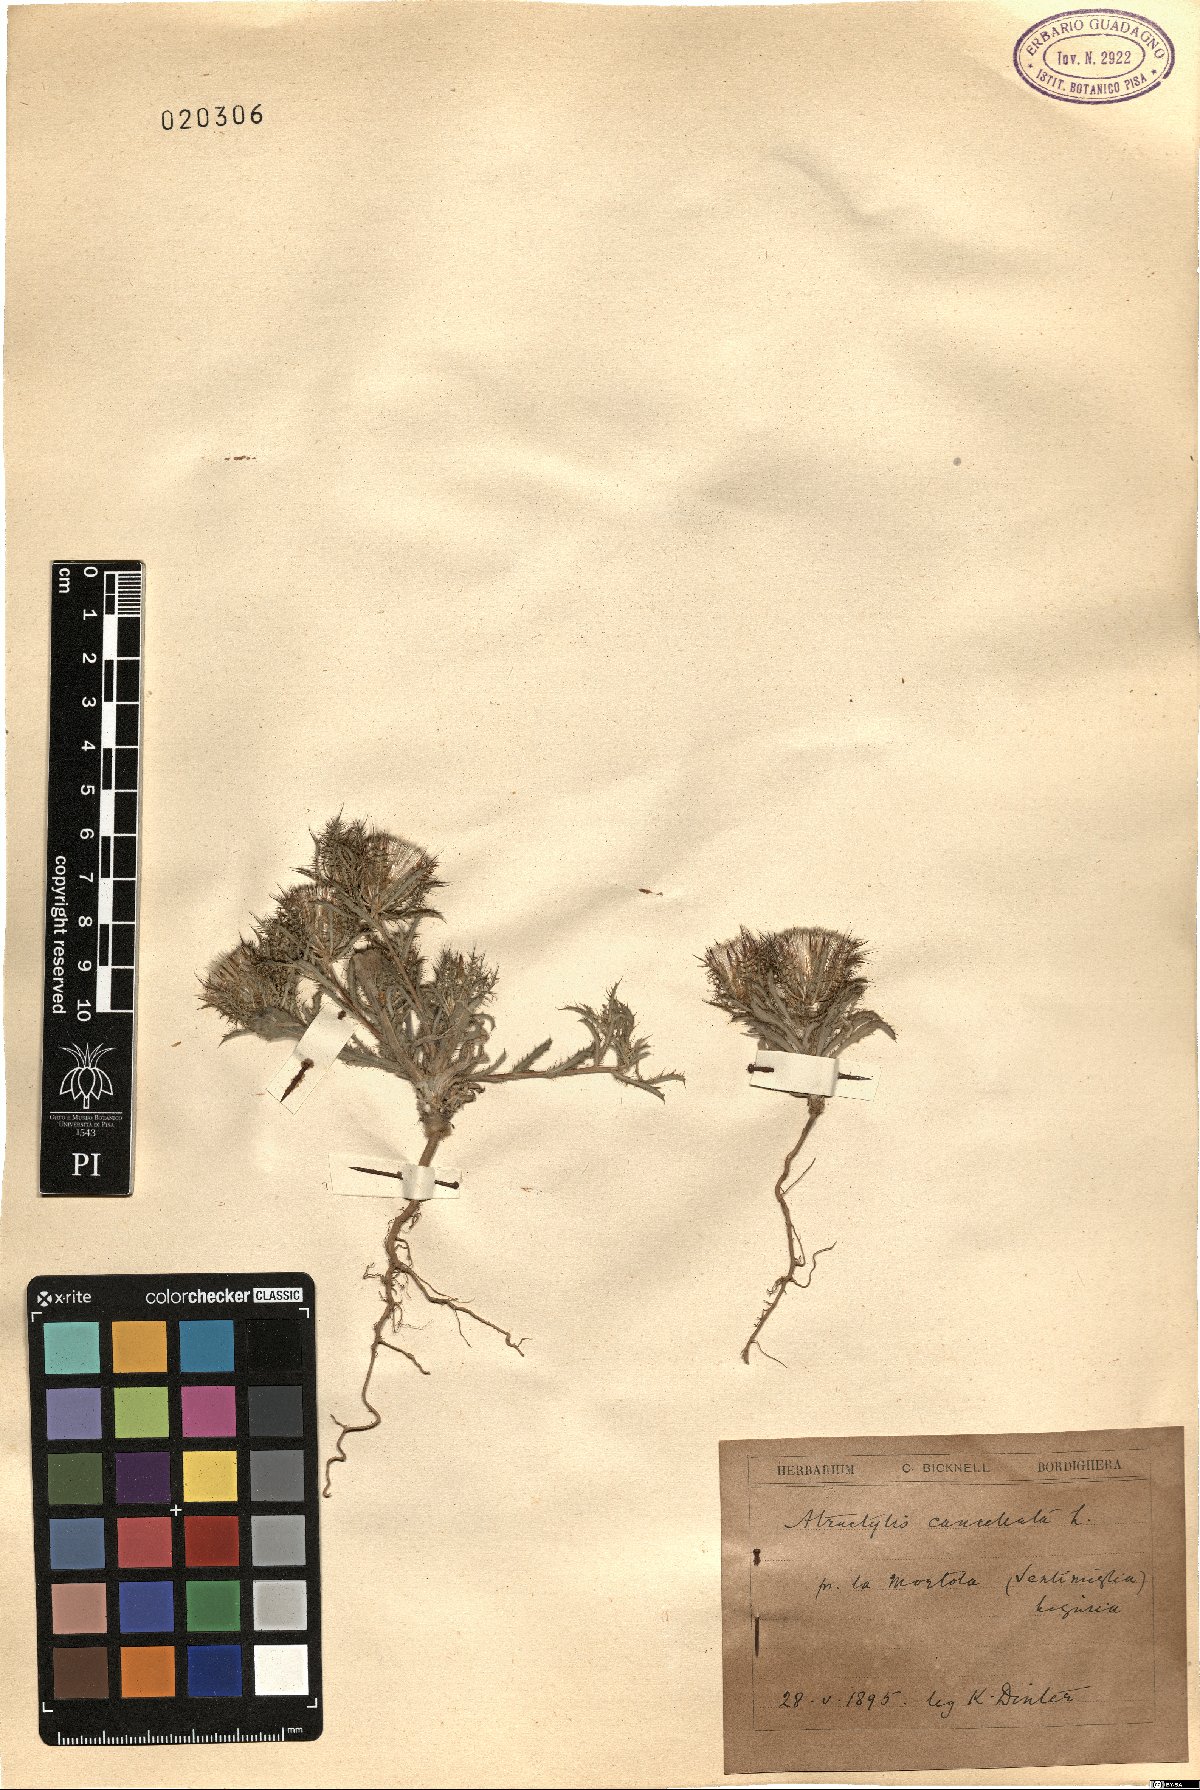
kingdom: Plantae
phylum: Tracheophyta
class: Magnoliopsida
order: Asterales
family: Asteraceae
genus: Atractylis
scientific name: Atractylis cancellata
